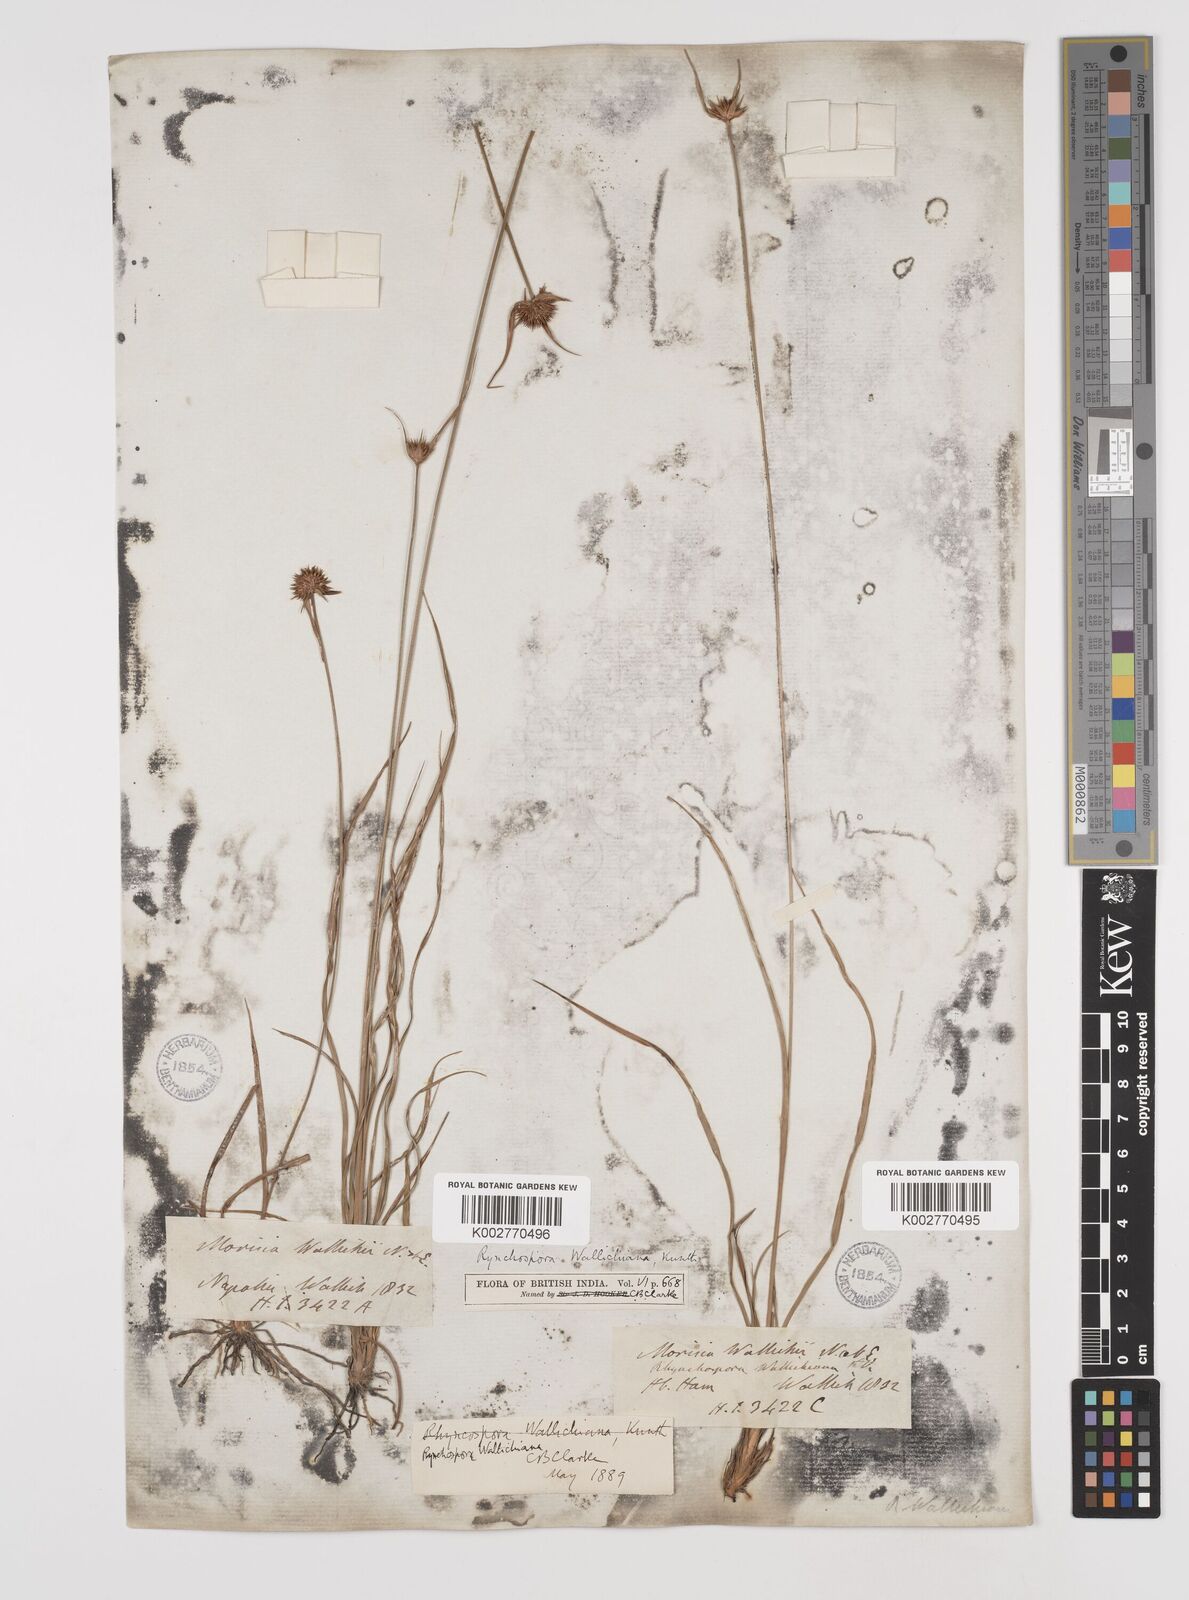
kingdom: Plantae
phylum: Tracheophyta
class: Liliopsida
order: Poales
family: Cyperaceae
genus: Rhynchospora
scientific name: Rhynchospora rubra
